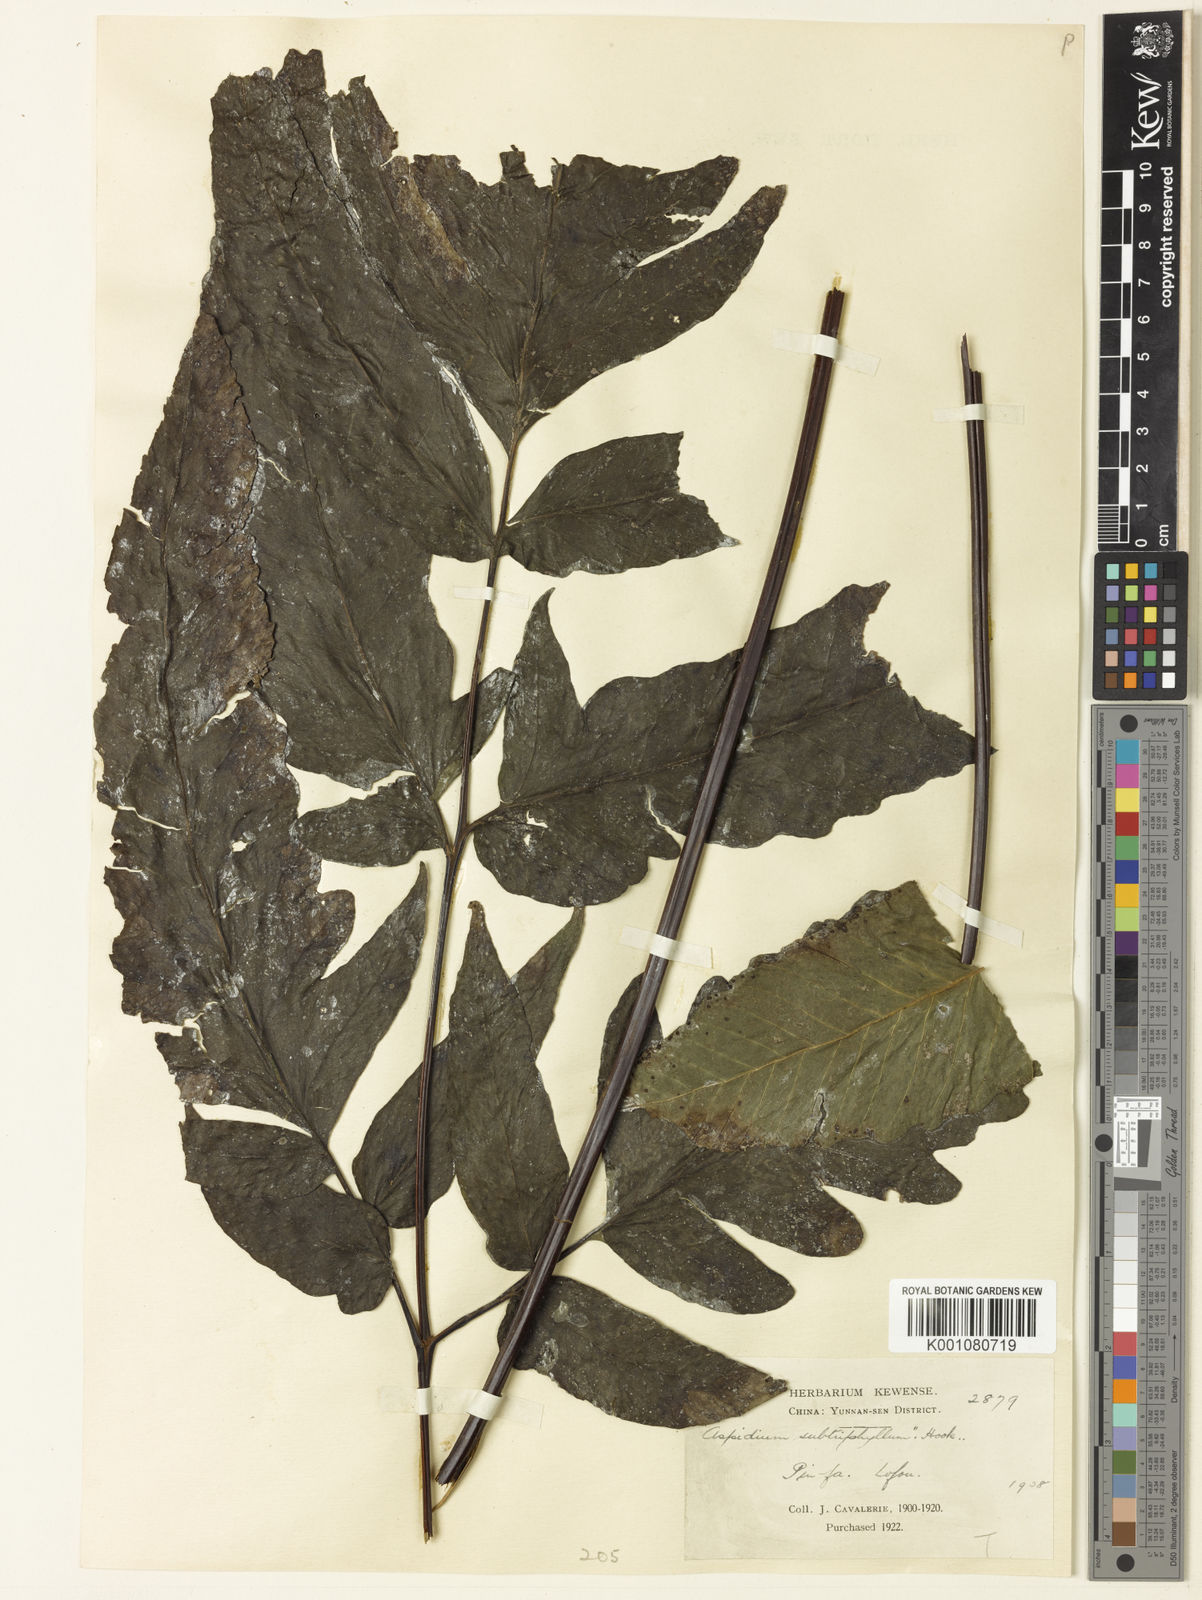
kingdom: Plantae
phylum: Tracheophyta
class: Polypodiopsida
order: Polypodiales
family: Tectariaceae
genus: Tectaria
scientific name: Tectaria simonsii
